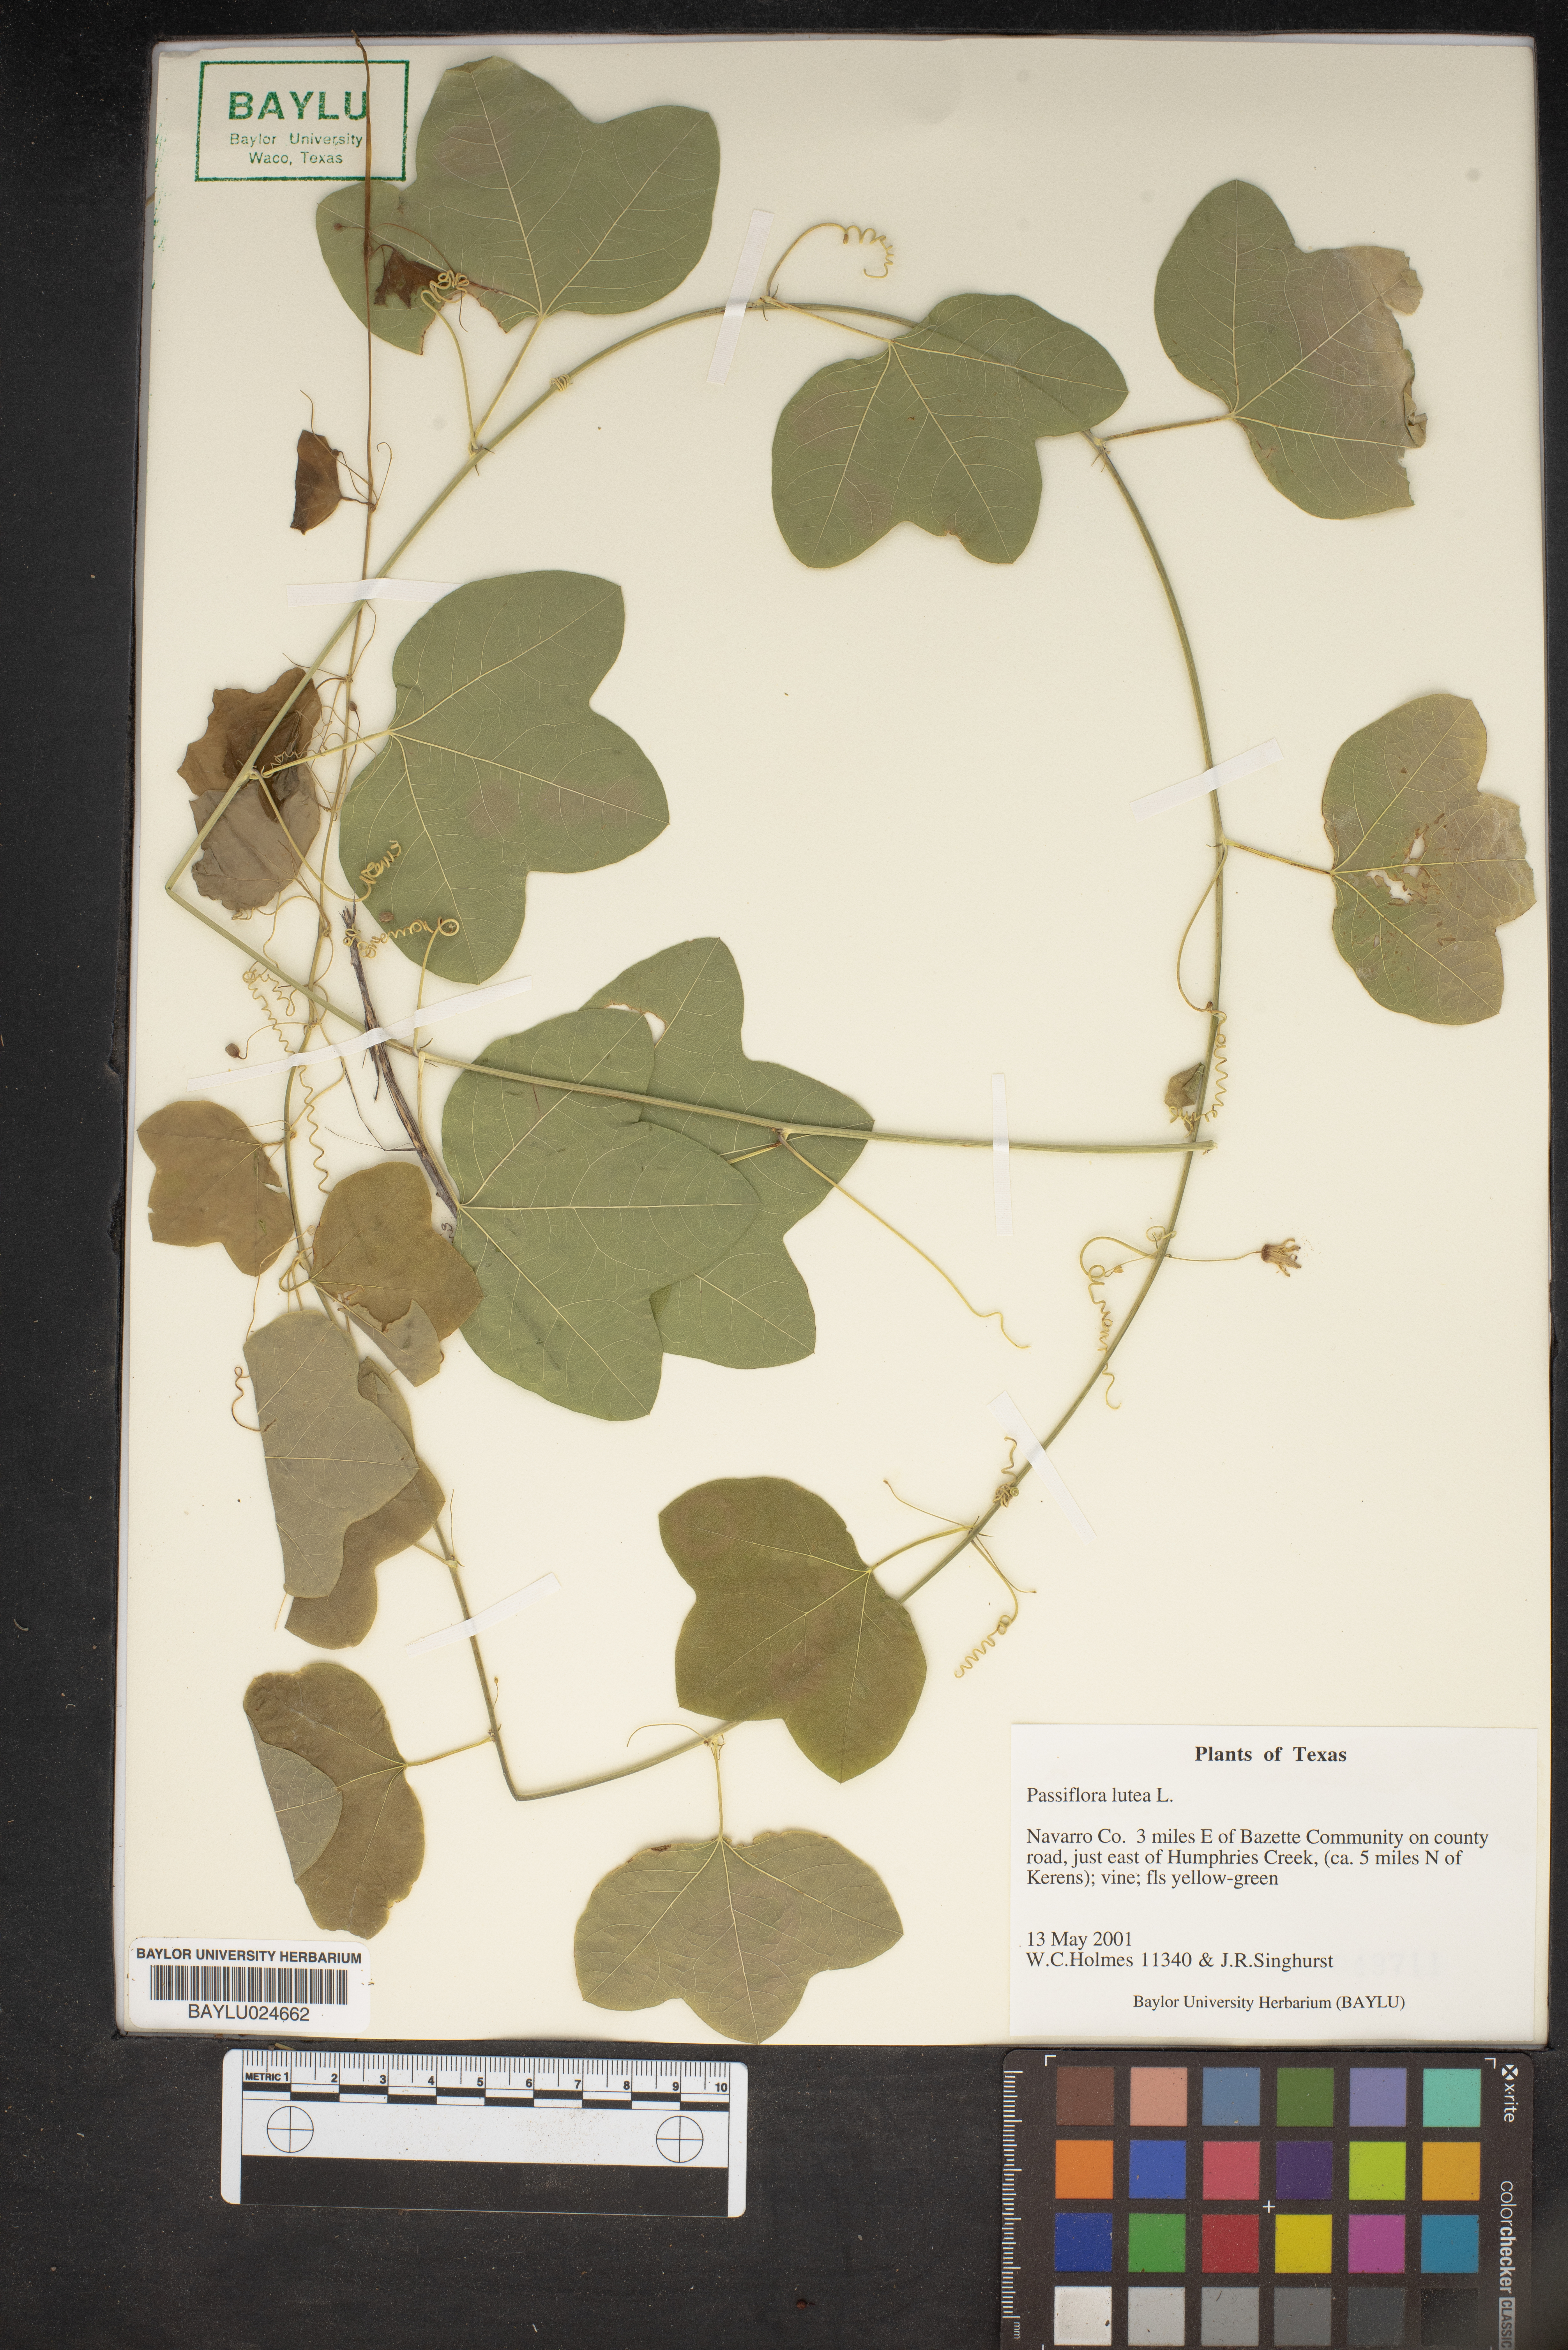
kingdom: Plantae
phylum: Tracheophyta
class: Magnoliopsida
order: Malpighiales
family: Passifloraceae
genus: Passiflora
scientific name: Passiflora lutea
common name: Yellow passionflower
